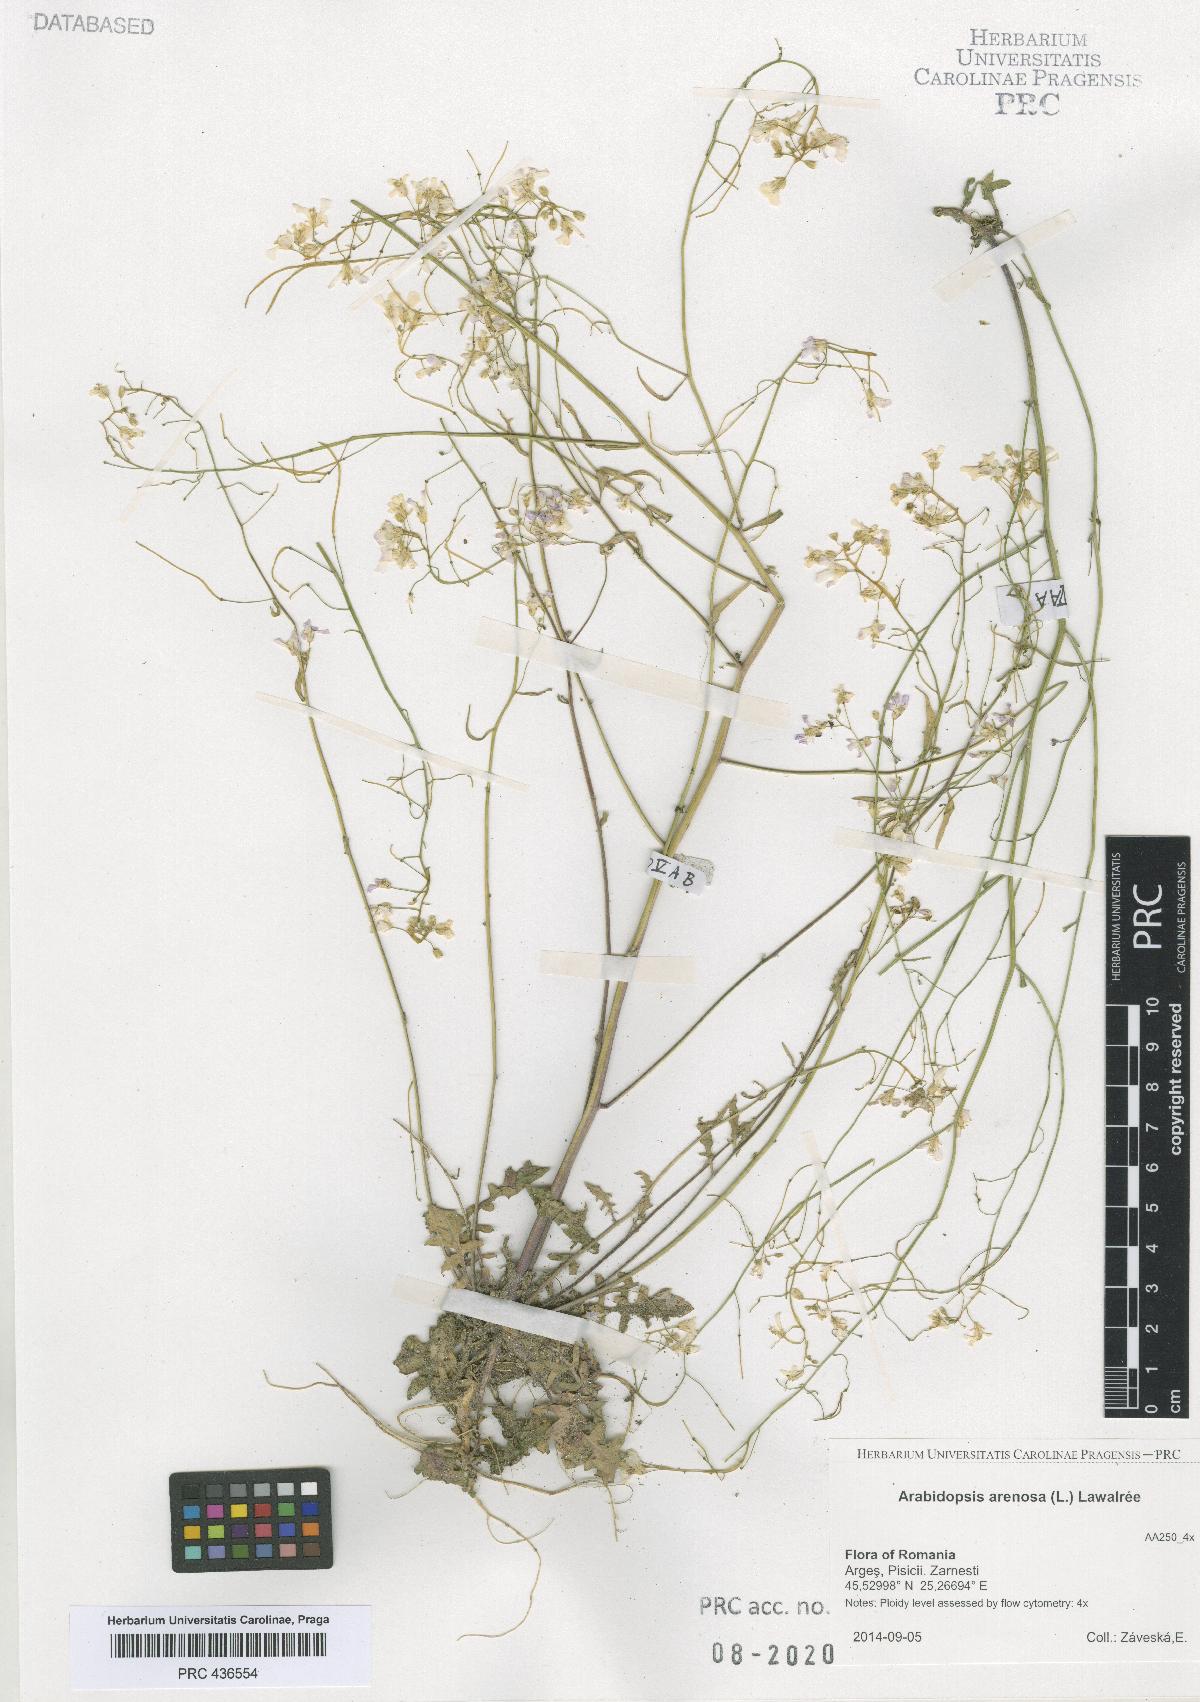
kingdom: Plantae
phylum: Tracheophyta
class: Magnoliopsida
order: Brassicales
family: Brassicaceae
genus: Arabidopsis
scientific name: Arabidopsis arenosa
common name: Sand rock-cress
